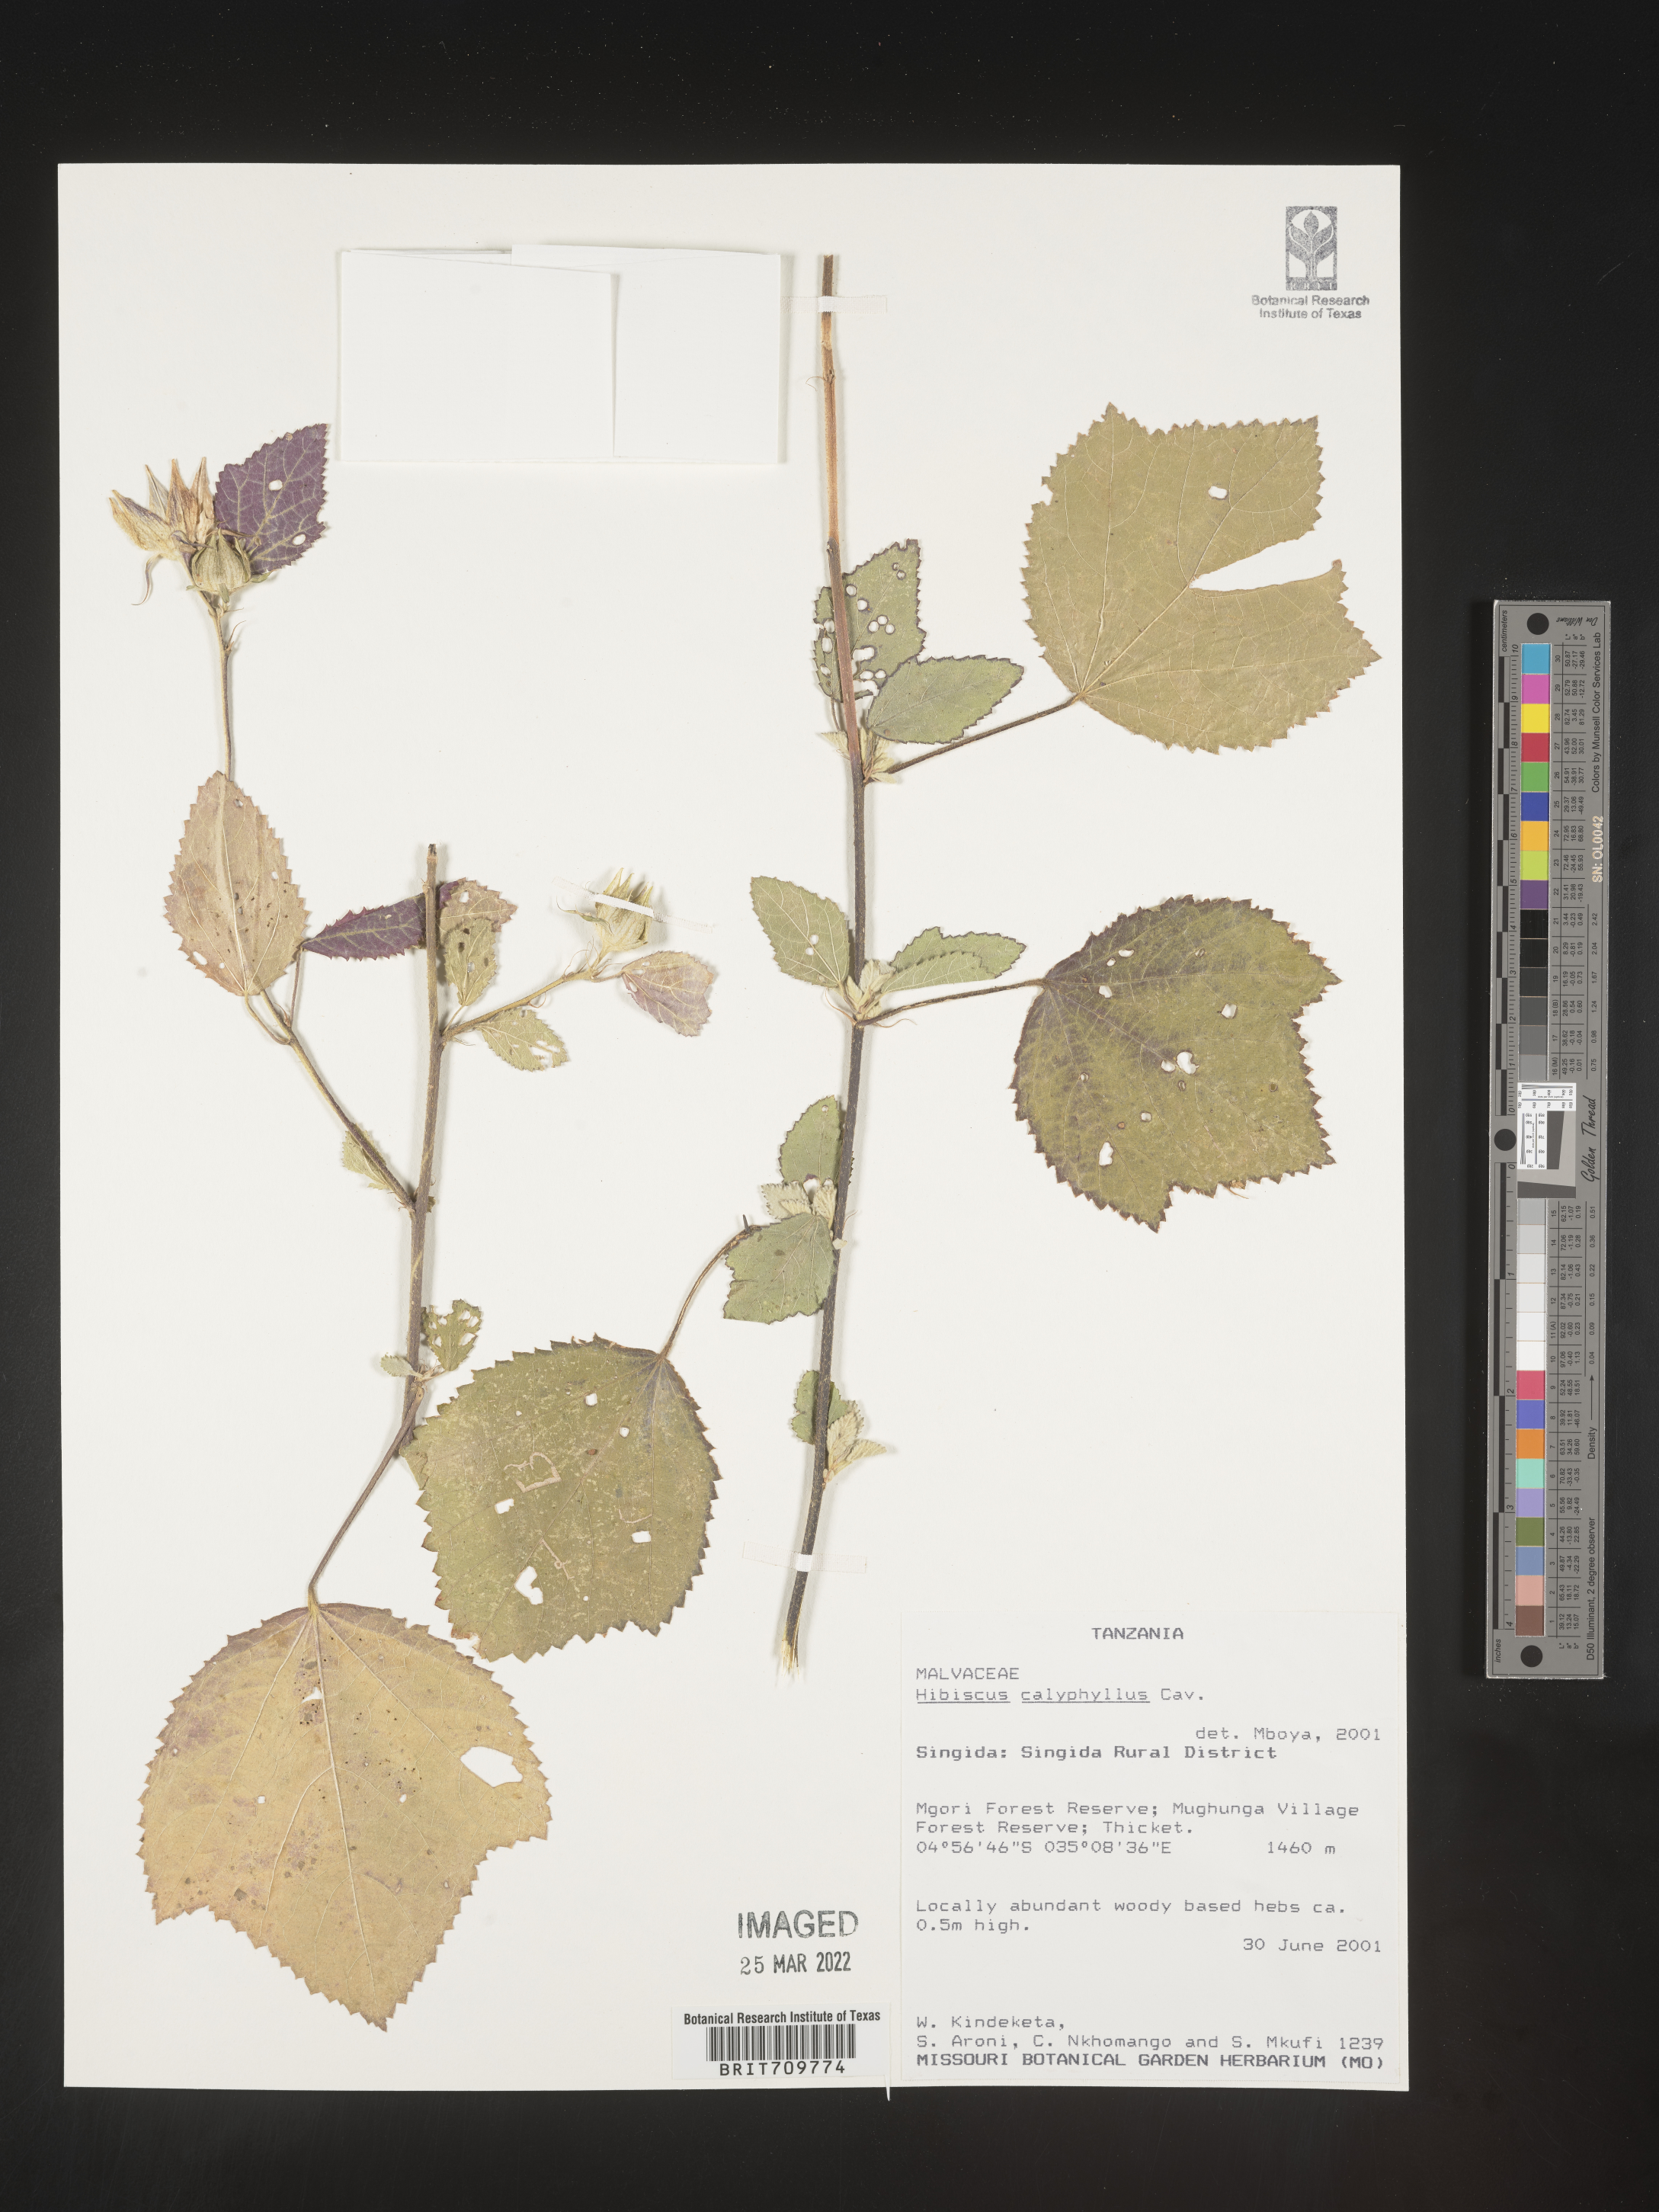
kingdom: Plantae
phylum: Tracheophyta
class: Magnoliopsida
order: Malvales
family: Malvaceae
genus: Hibiscus
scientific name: Hibiscus
